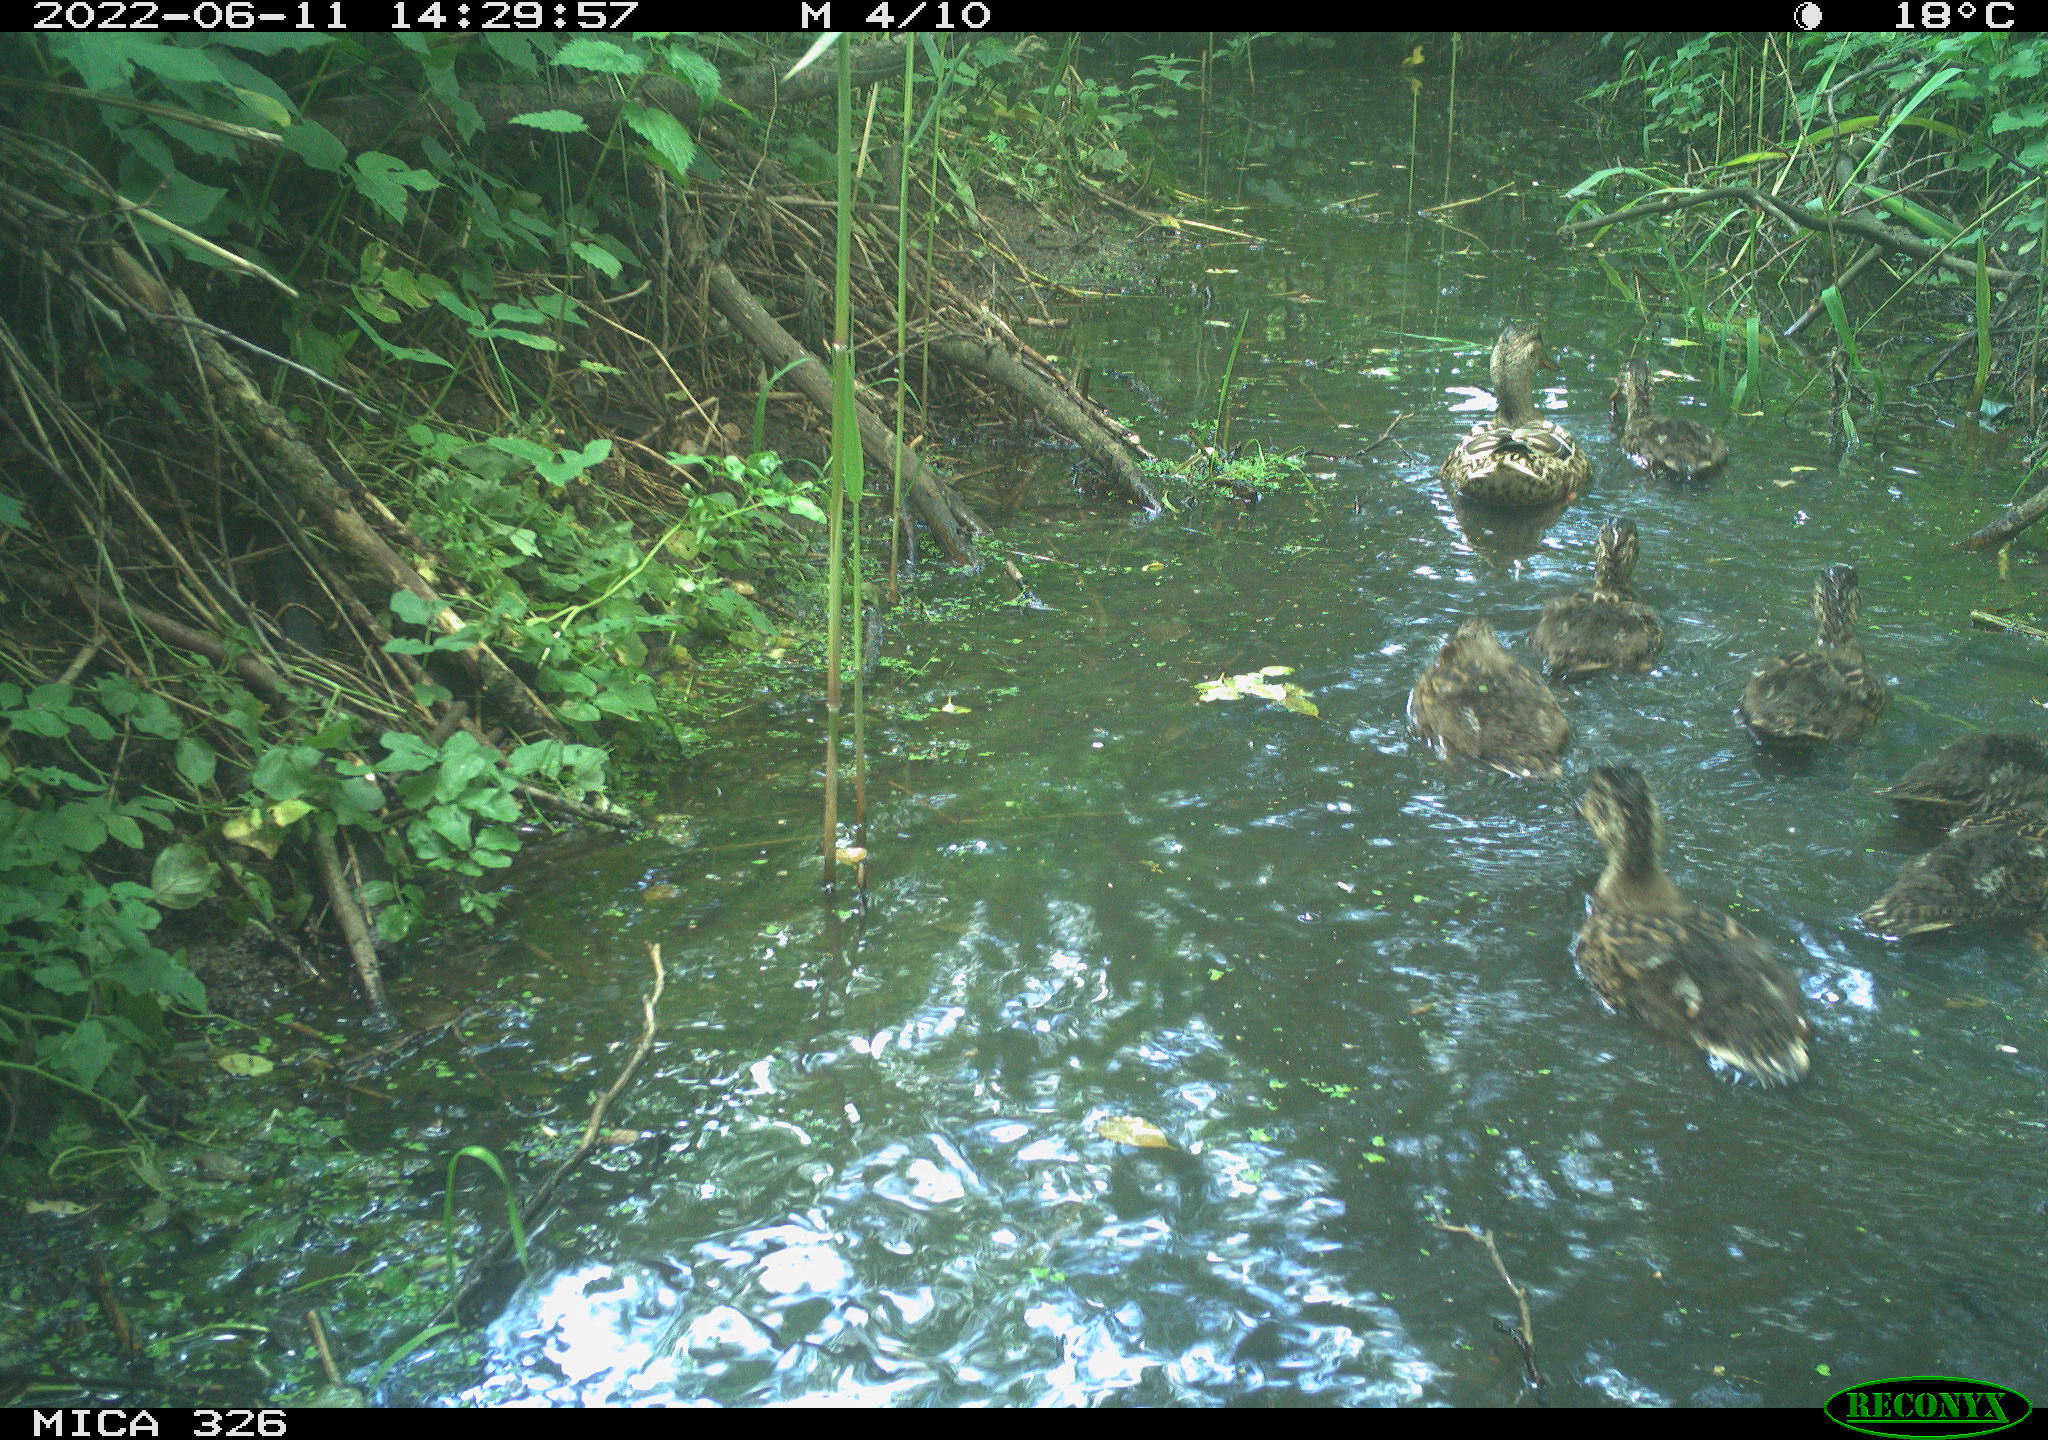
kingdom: Animalia
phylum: Chordata
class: Aves
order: Anseriformes
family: Anatidae
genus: Anas
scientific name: Anas platyrhynchos
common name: Mallard
